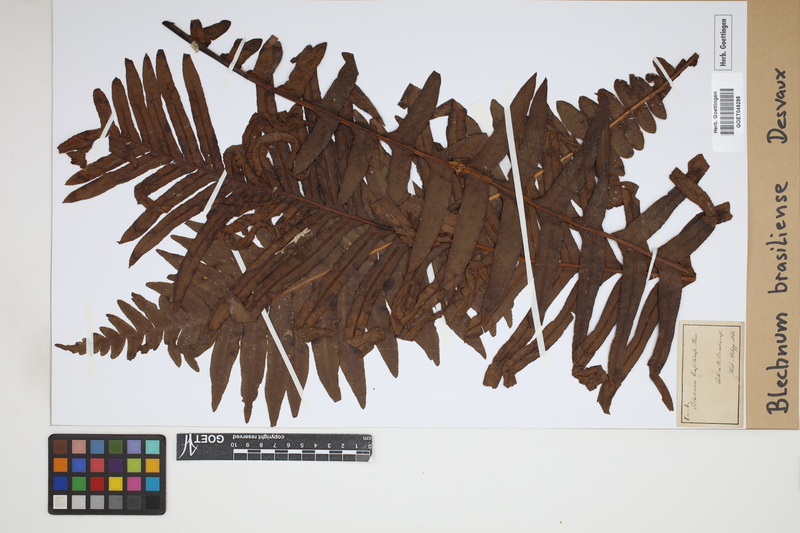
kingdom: Plantae
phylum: Tracheophyta
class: Polypodiopsida
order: Polypodiales
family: Blechnaceae
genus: Neoblechnum
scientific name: Neoblechnum brasiliense
